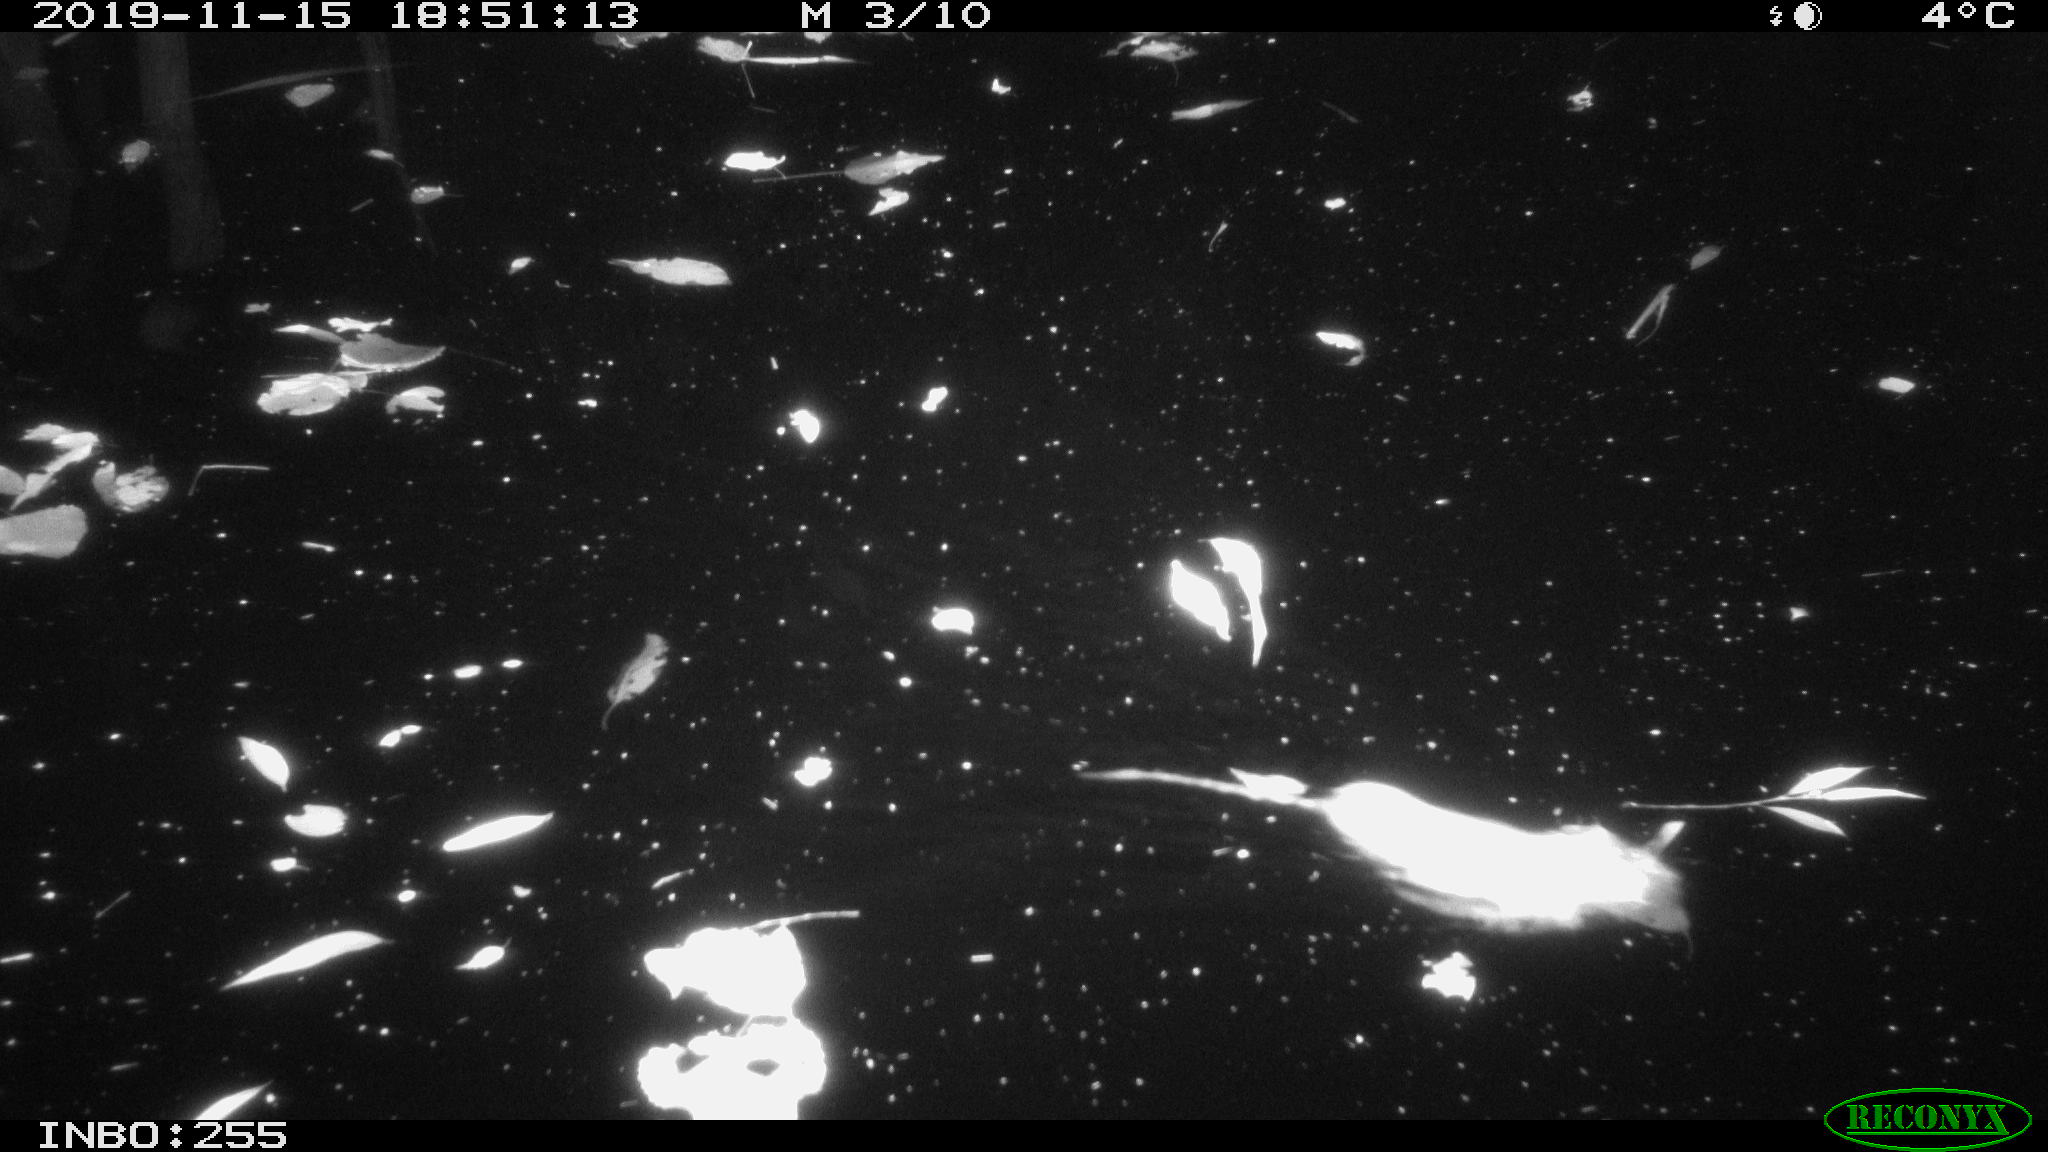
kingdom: Animalia
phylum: Chordata
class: Mammalia
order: Rodentia
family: Muridae
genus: Rattus
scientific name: Rattus norvegicus
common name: Brown rat
